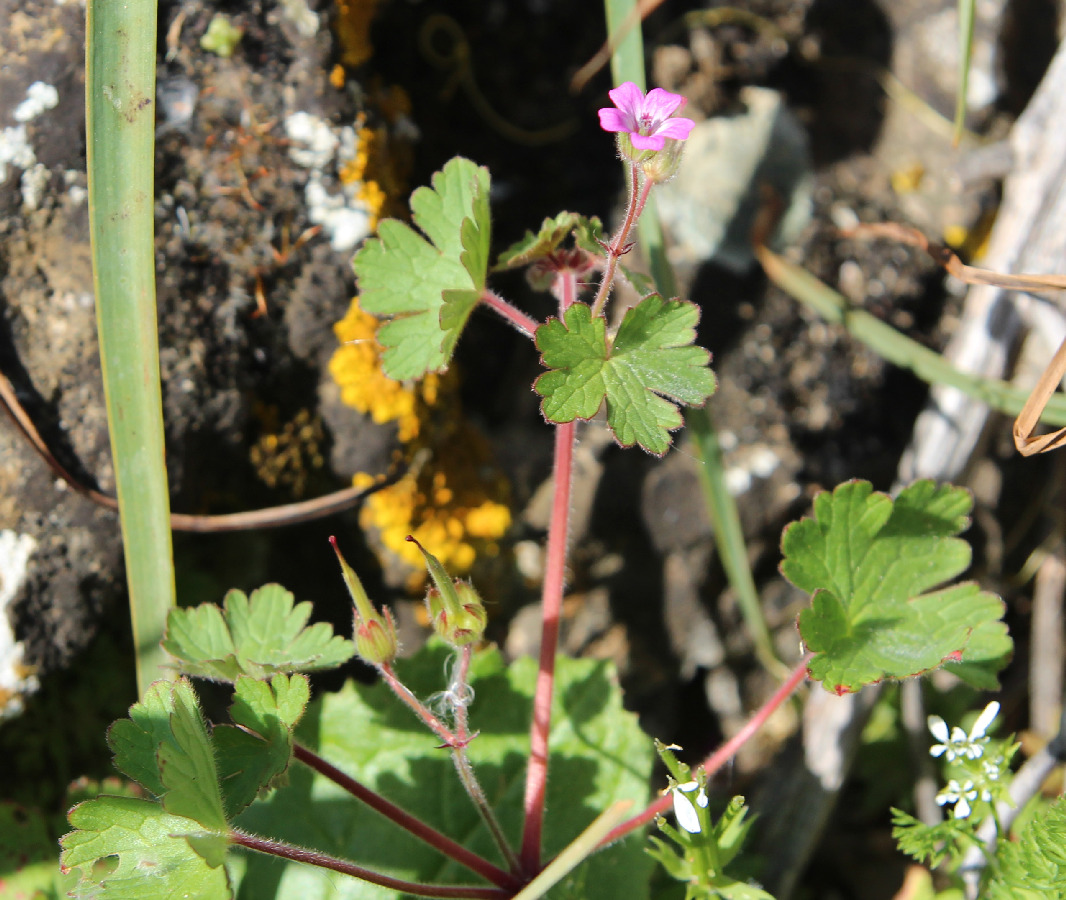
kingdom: Plantae
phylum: Tracheophyta
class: Magnoliopsida
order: Geraniales
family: Geraniaceae
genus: Geranium
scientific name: Geranium rotundifolium
